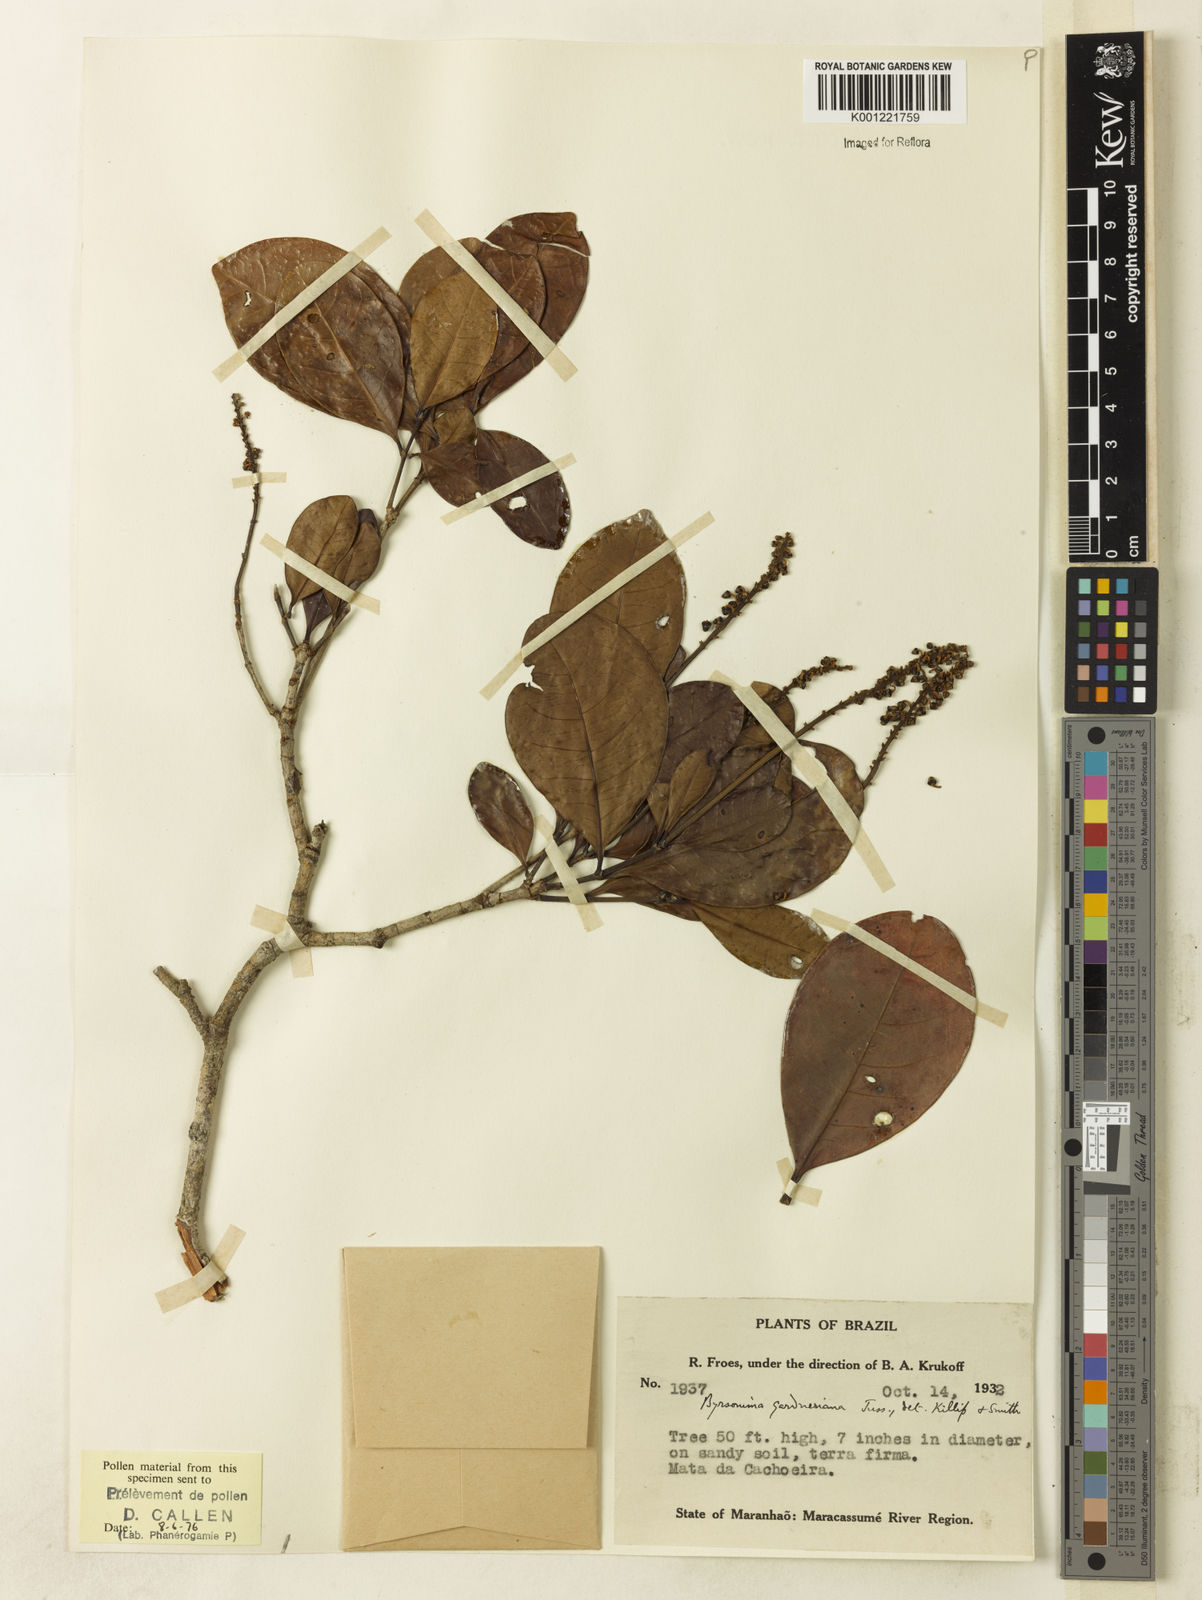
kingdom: Plantae
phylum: Tracheophyta
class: Magnoliopsida
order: Malpighiales
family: Malpighiaceae
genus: Byrsonima
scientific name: Byrsonima gardneriana
